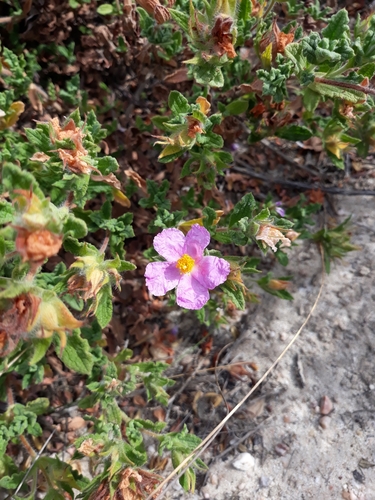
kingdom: Plantae
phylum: Tracheophyta
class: Magnoliopsida
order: Malvales
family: Cistaceae
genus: Cistus
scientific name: Cistus crispus
